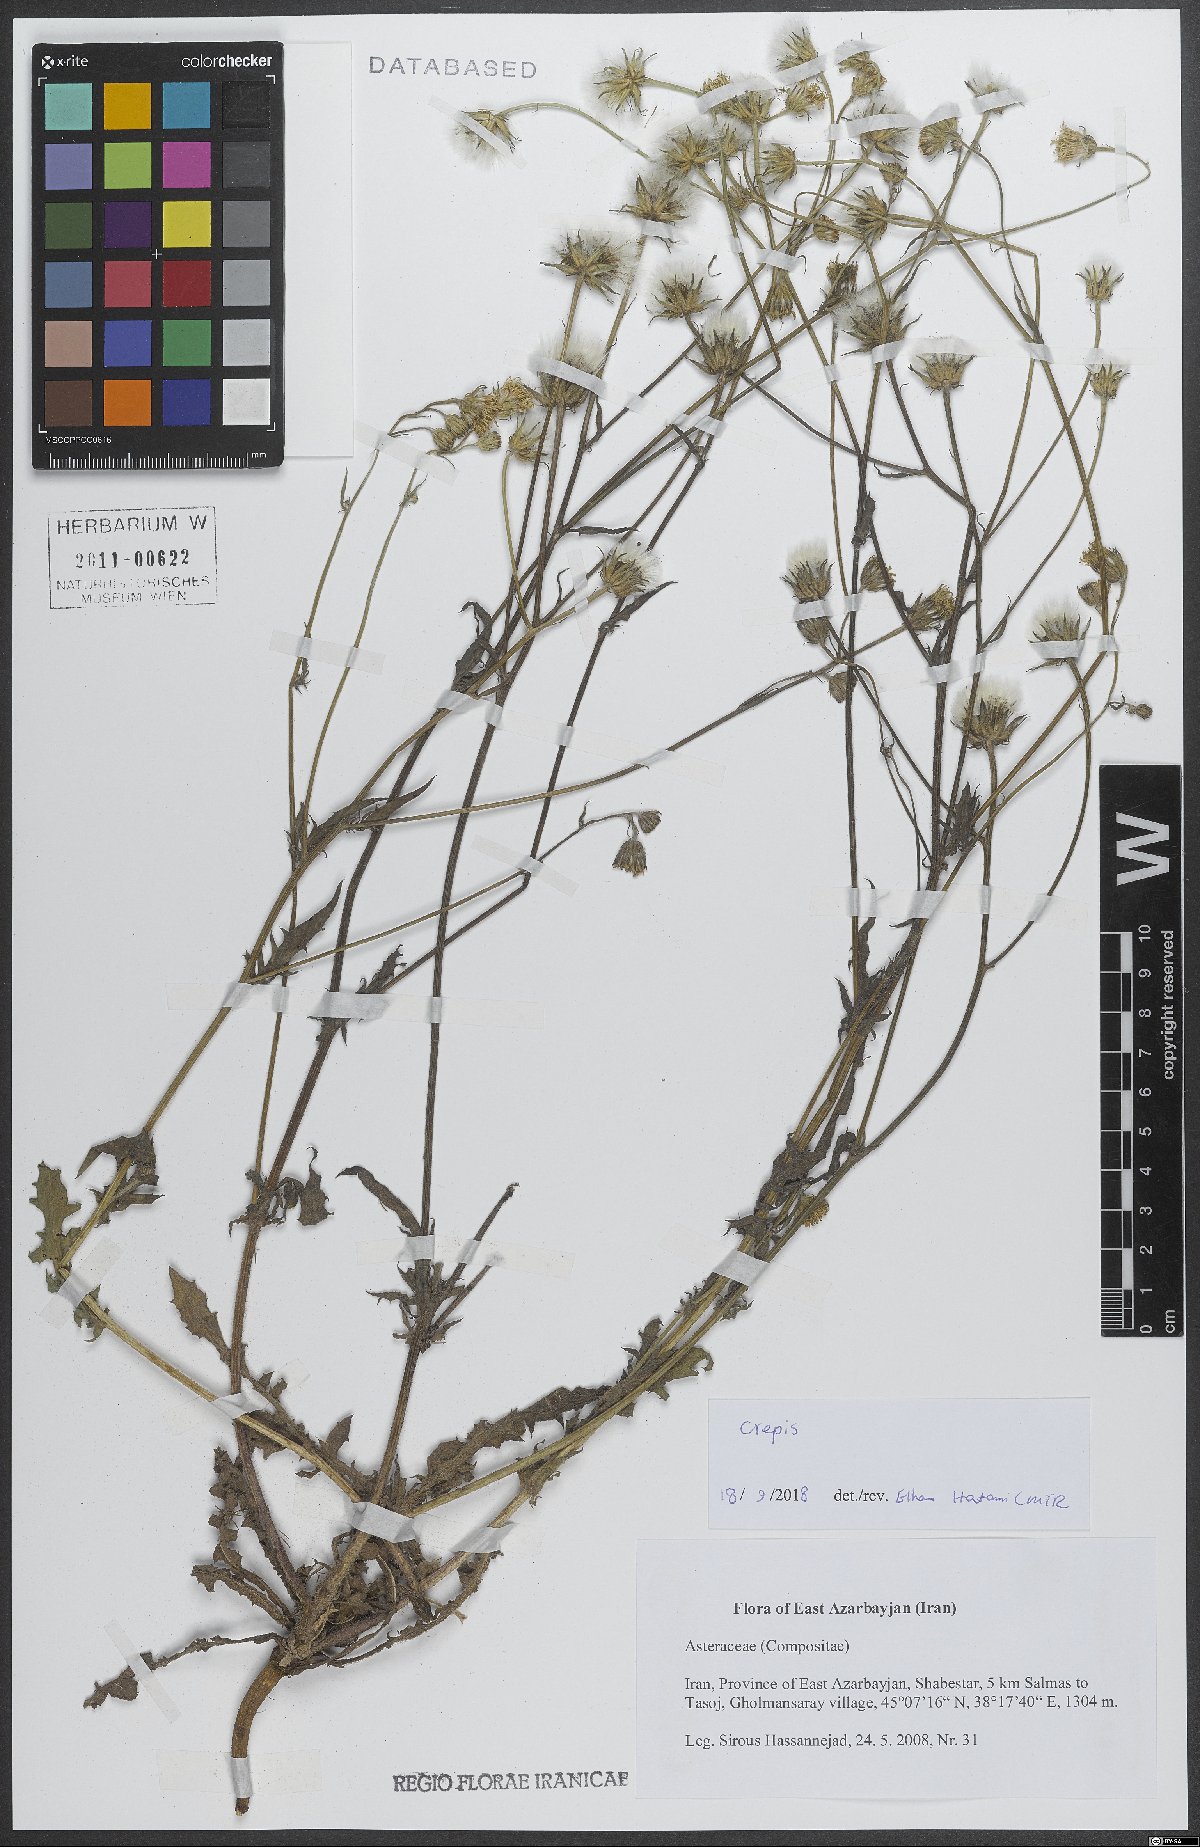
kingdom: Plantae
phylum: Tracheophyta
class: Magnoliopsida
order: Asterales
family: Asteraceae
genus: Crepis
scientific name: Crepis
